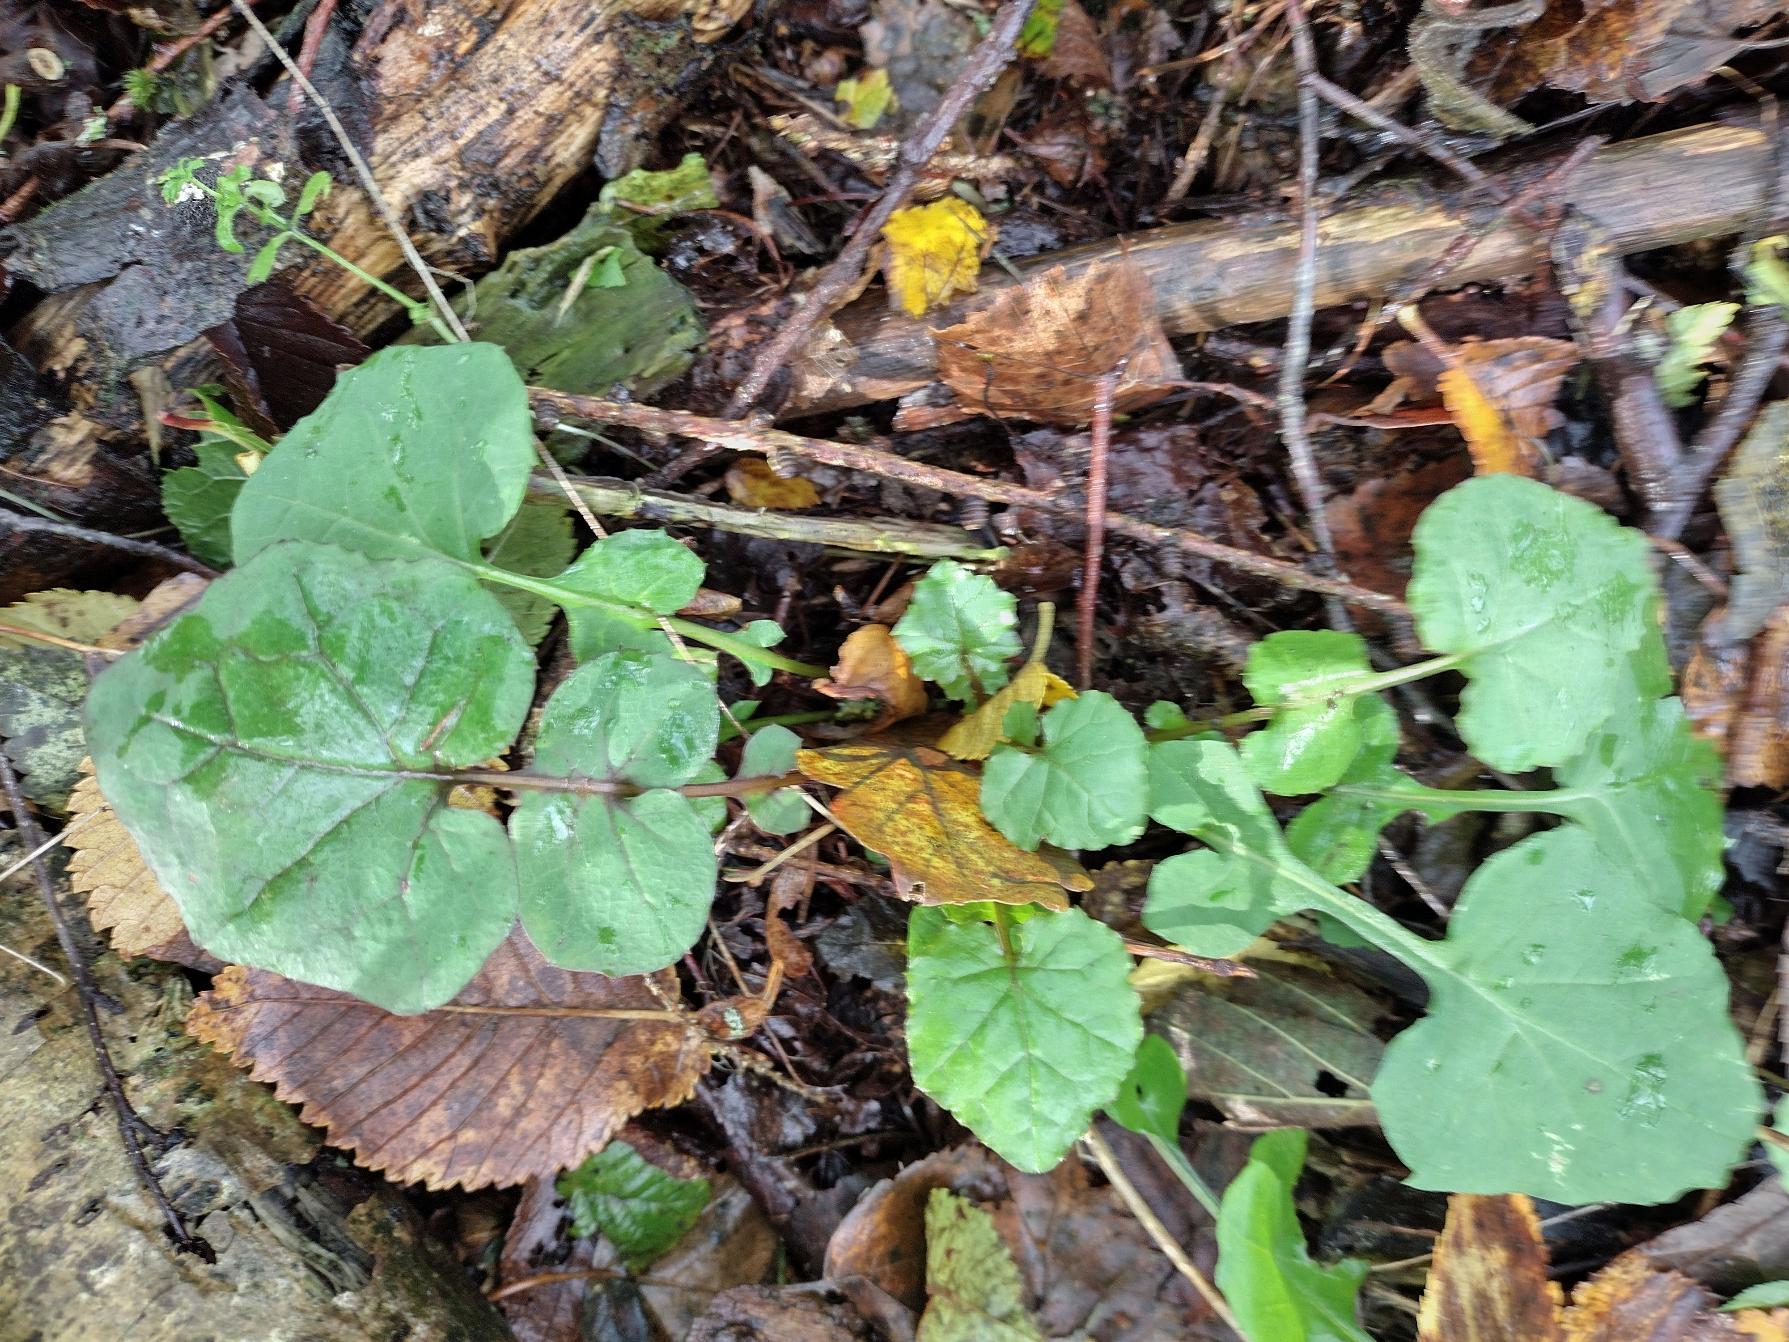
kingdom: Plantae
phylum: Tracheophyta
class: Magnoliopsida
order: Asterales
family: Asteraceae
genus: Mycelis
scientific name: Mycelis muralis
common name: Skov-salat
